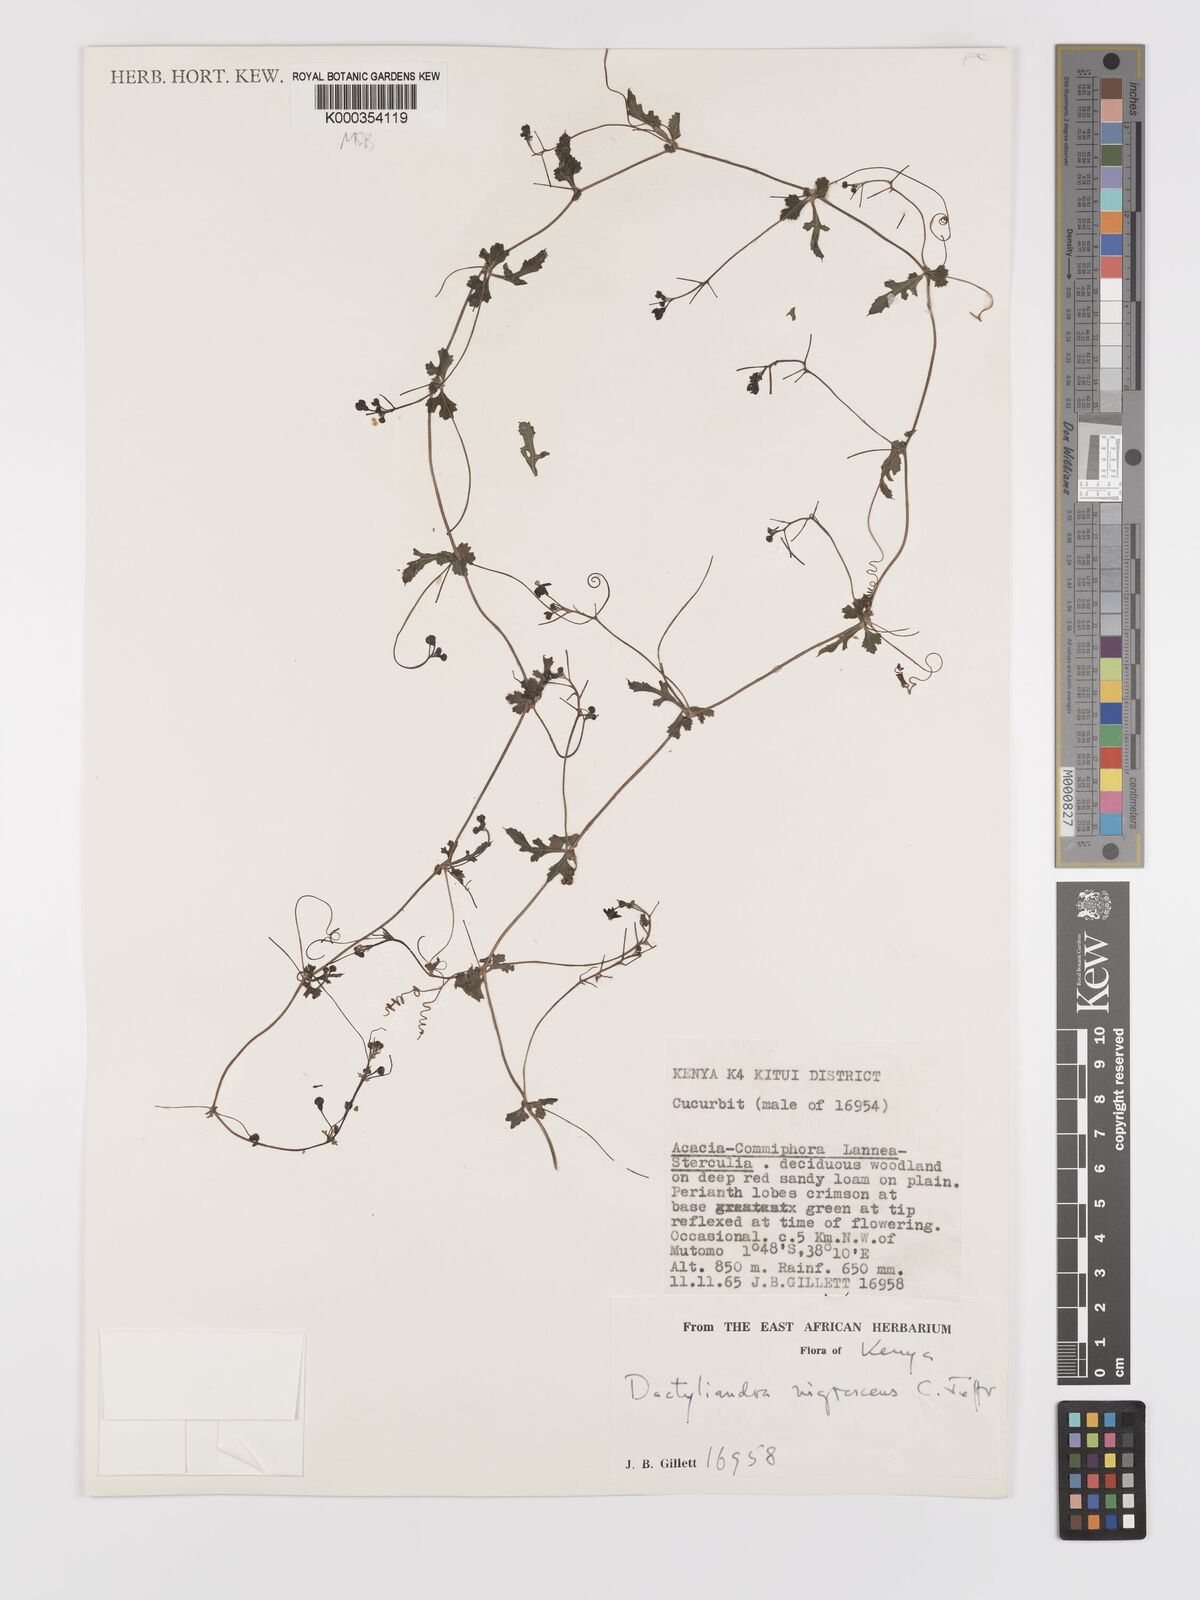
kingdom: Plantae
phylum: Tracheophyta
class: Magnoliopsida
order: Cucurbitales
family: Cucurbitaceae
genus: Trochomeria
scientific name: Trochomeria nigrescens
